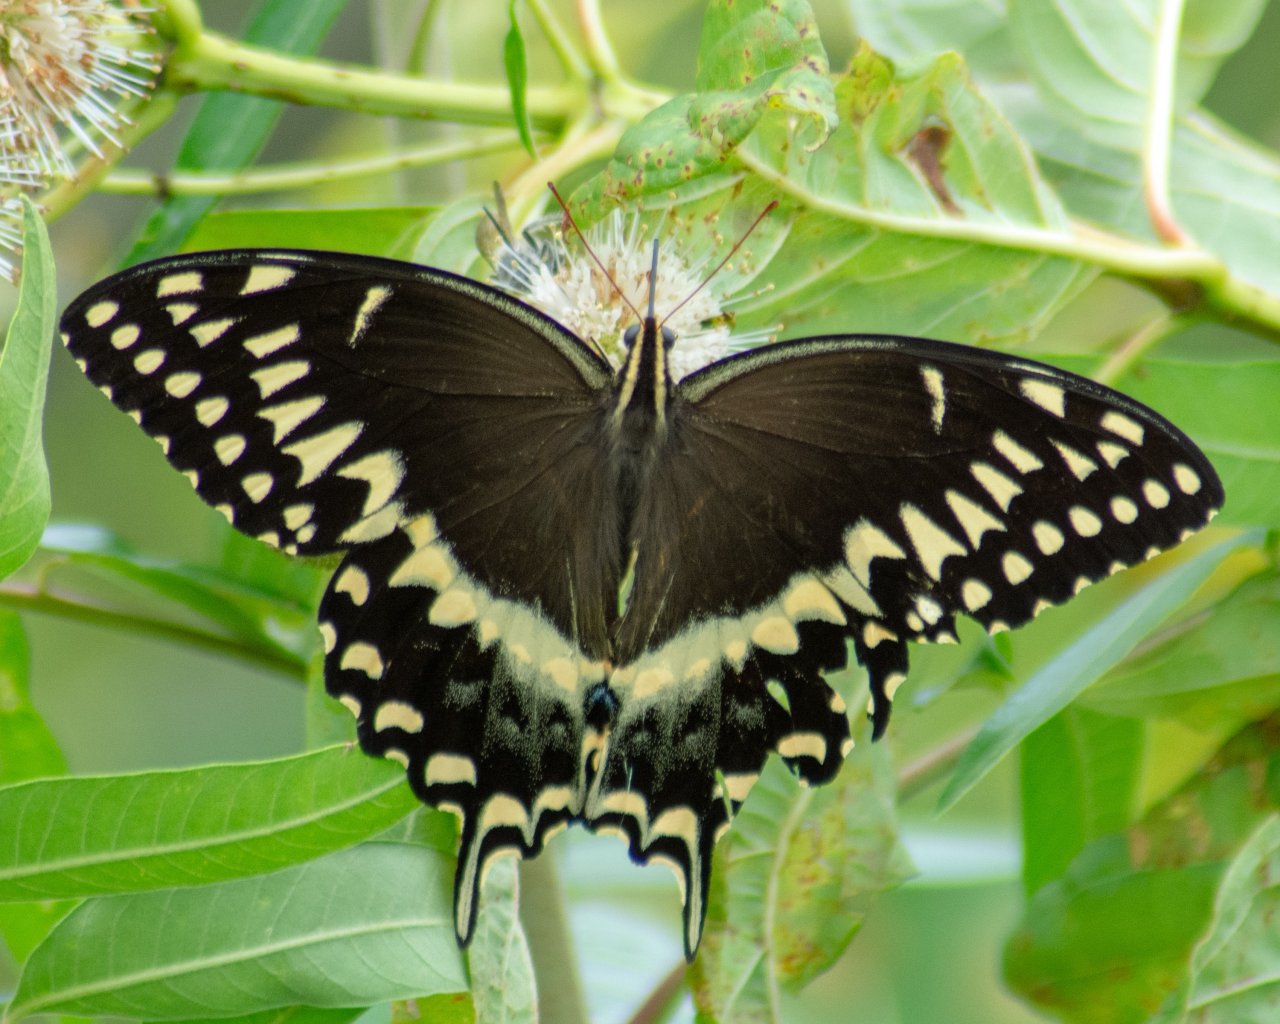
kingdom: Animalia
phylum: Arthropoda
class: Insecta
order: Lepidoptera
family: Papilionidae
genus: Pterourus
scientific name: Pterourus palamedes
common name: Palamedes Swallowtail
